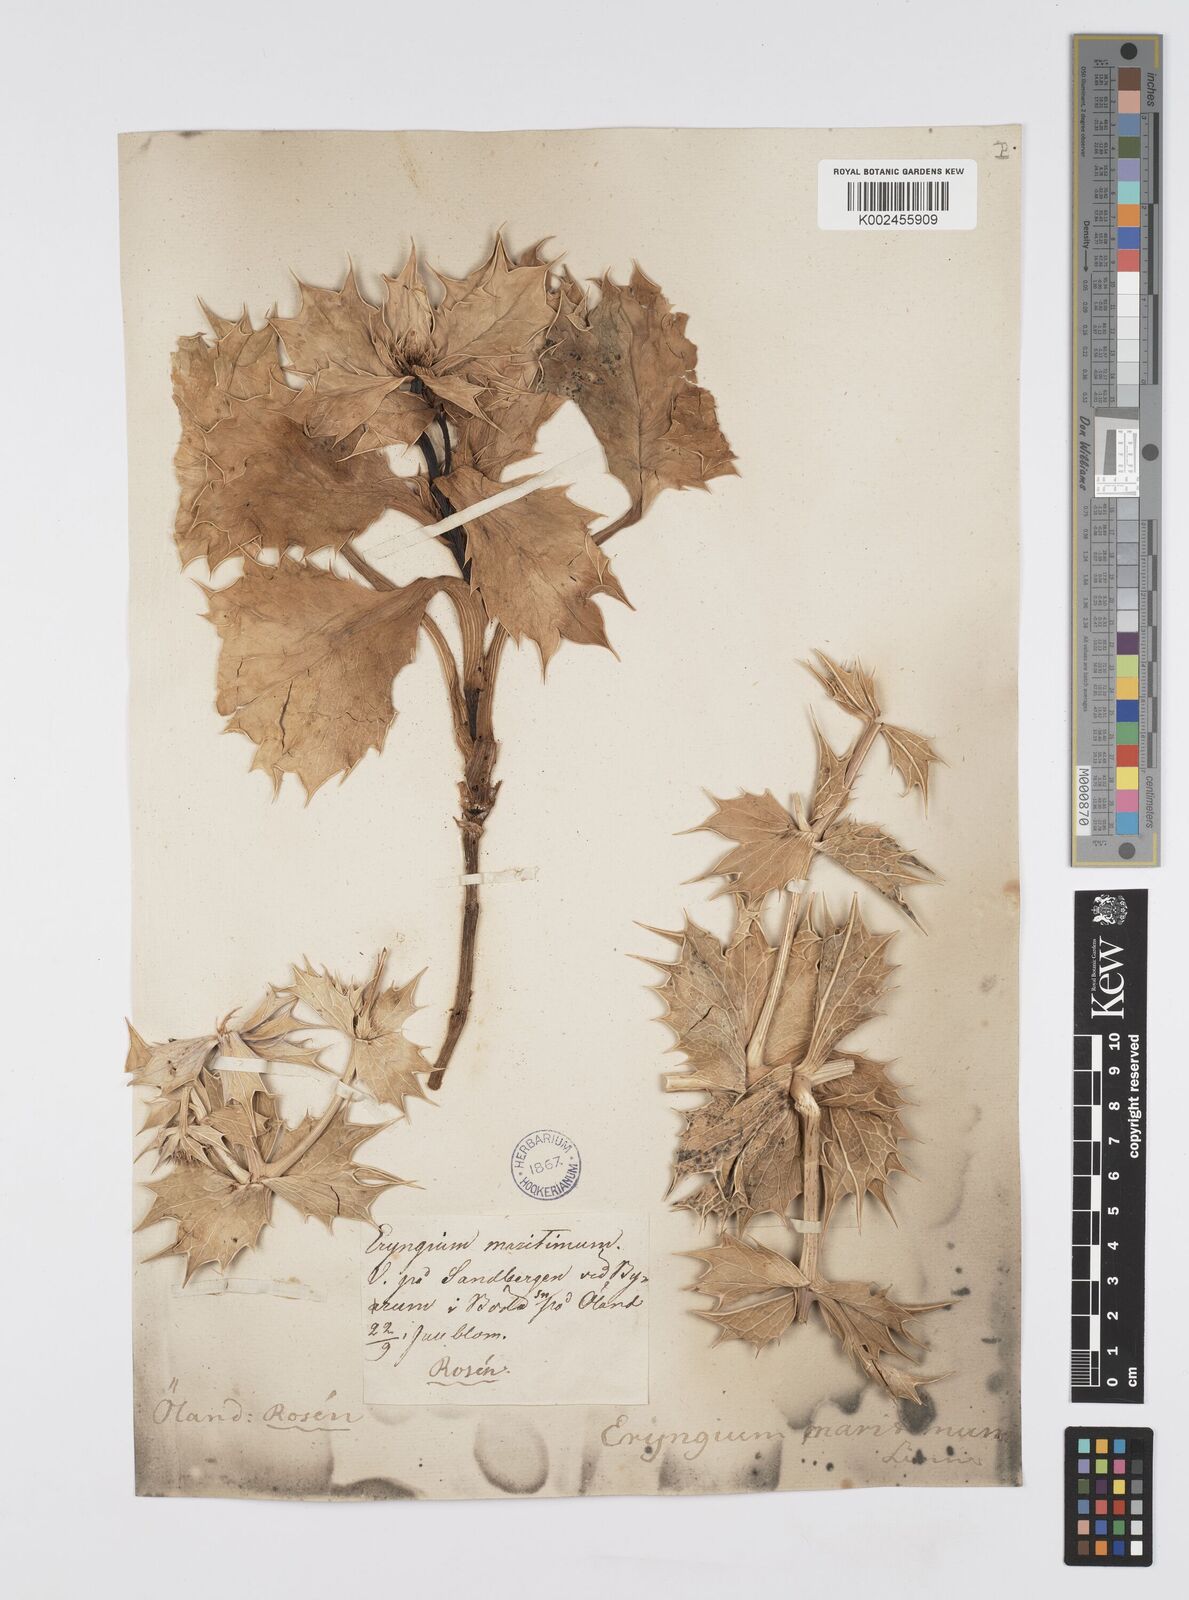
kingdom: Plantae
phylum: Tracheophyta
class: Magnoliopsida
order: Apiales
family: Apiaceae
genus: Eryngium
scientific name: Eryngium maritimum
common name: Sea-holly
